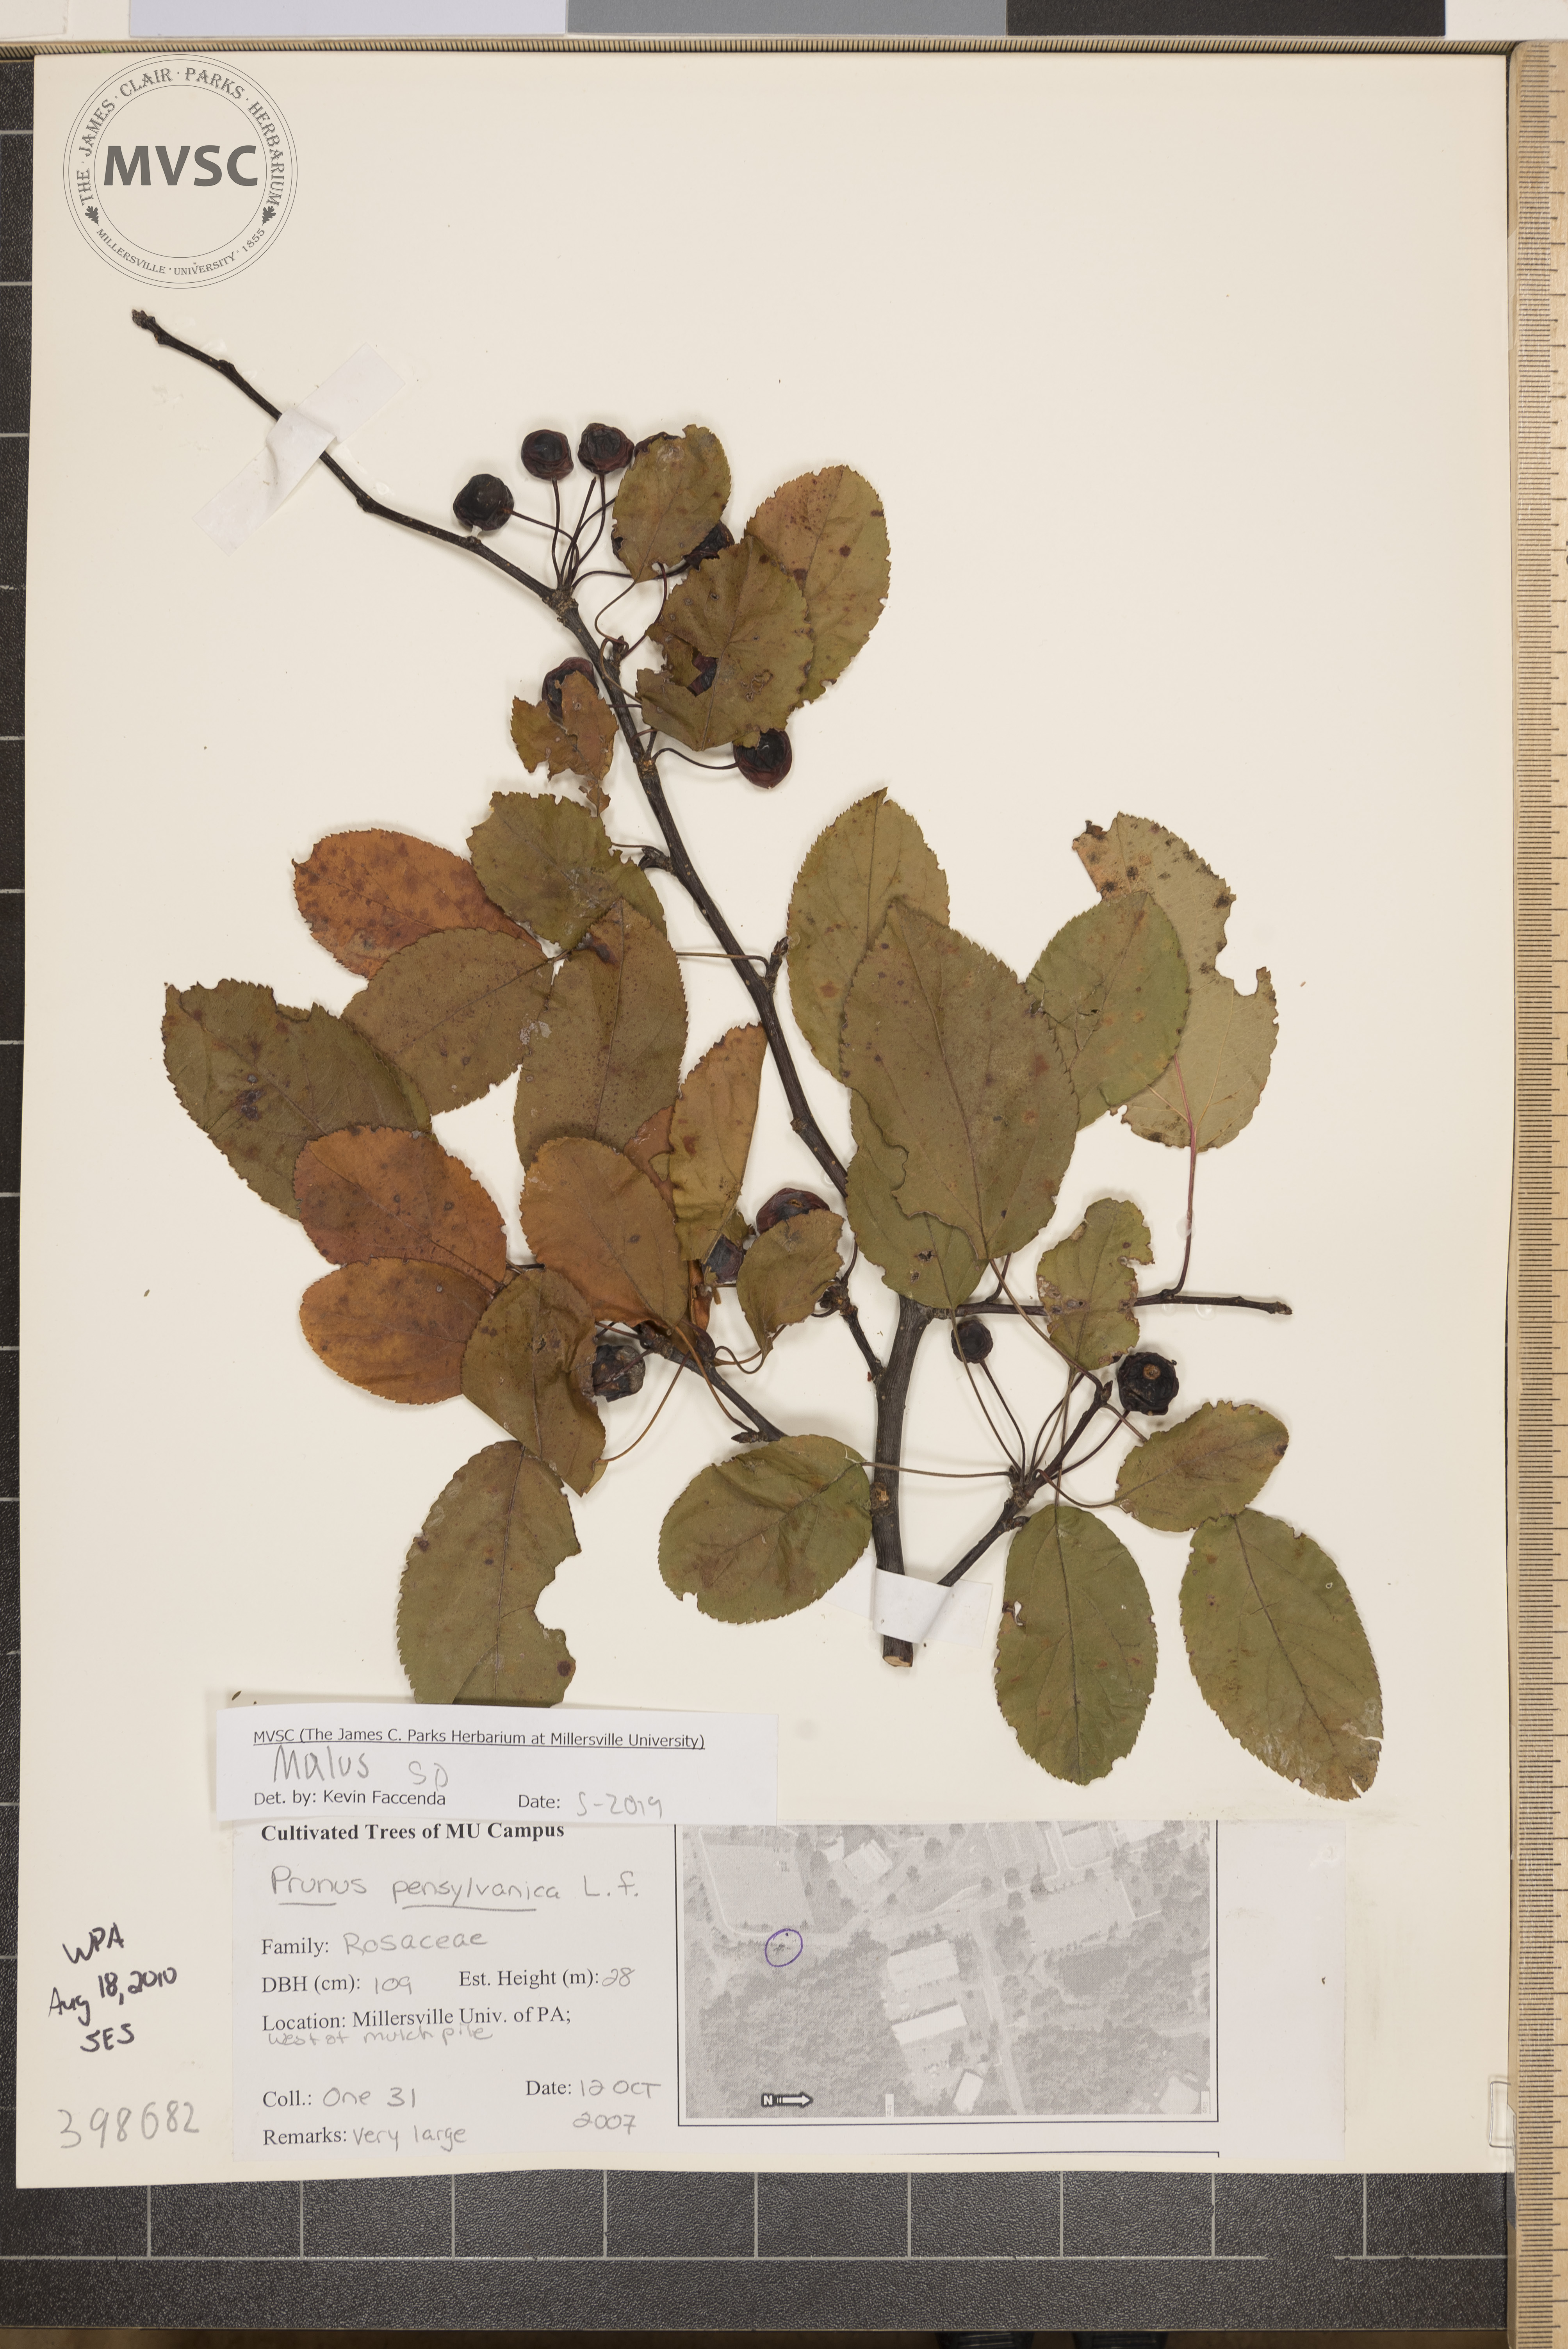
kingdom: Plantae
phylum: Tracheophyta
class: Magnoliopsida
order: Rosales
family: Rosaceae
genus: Malus
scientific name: Malus
